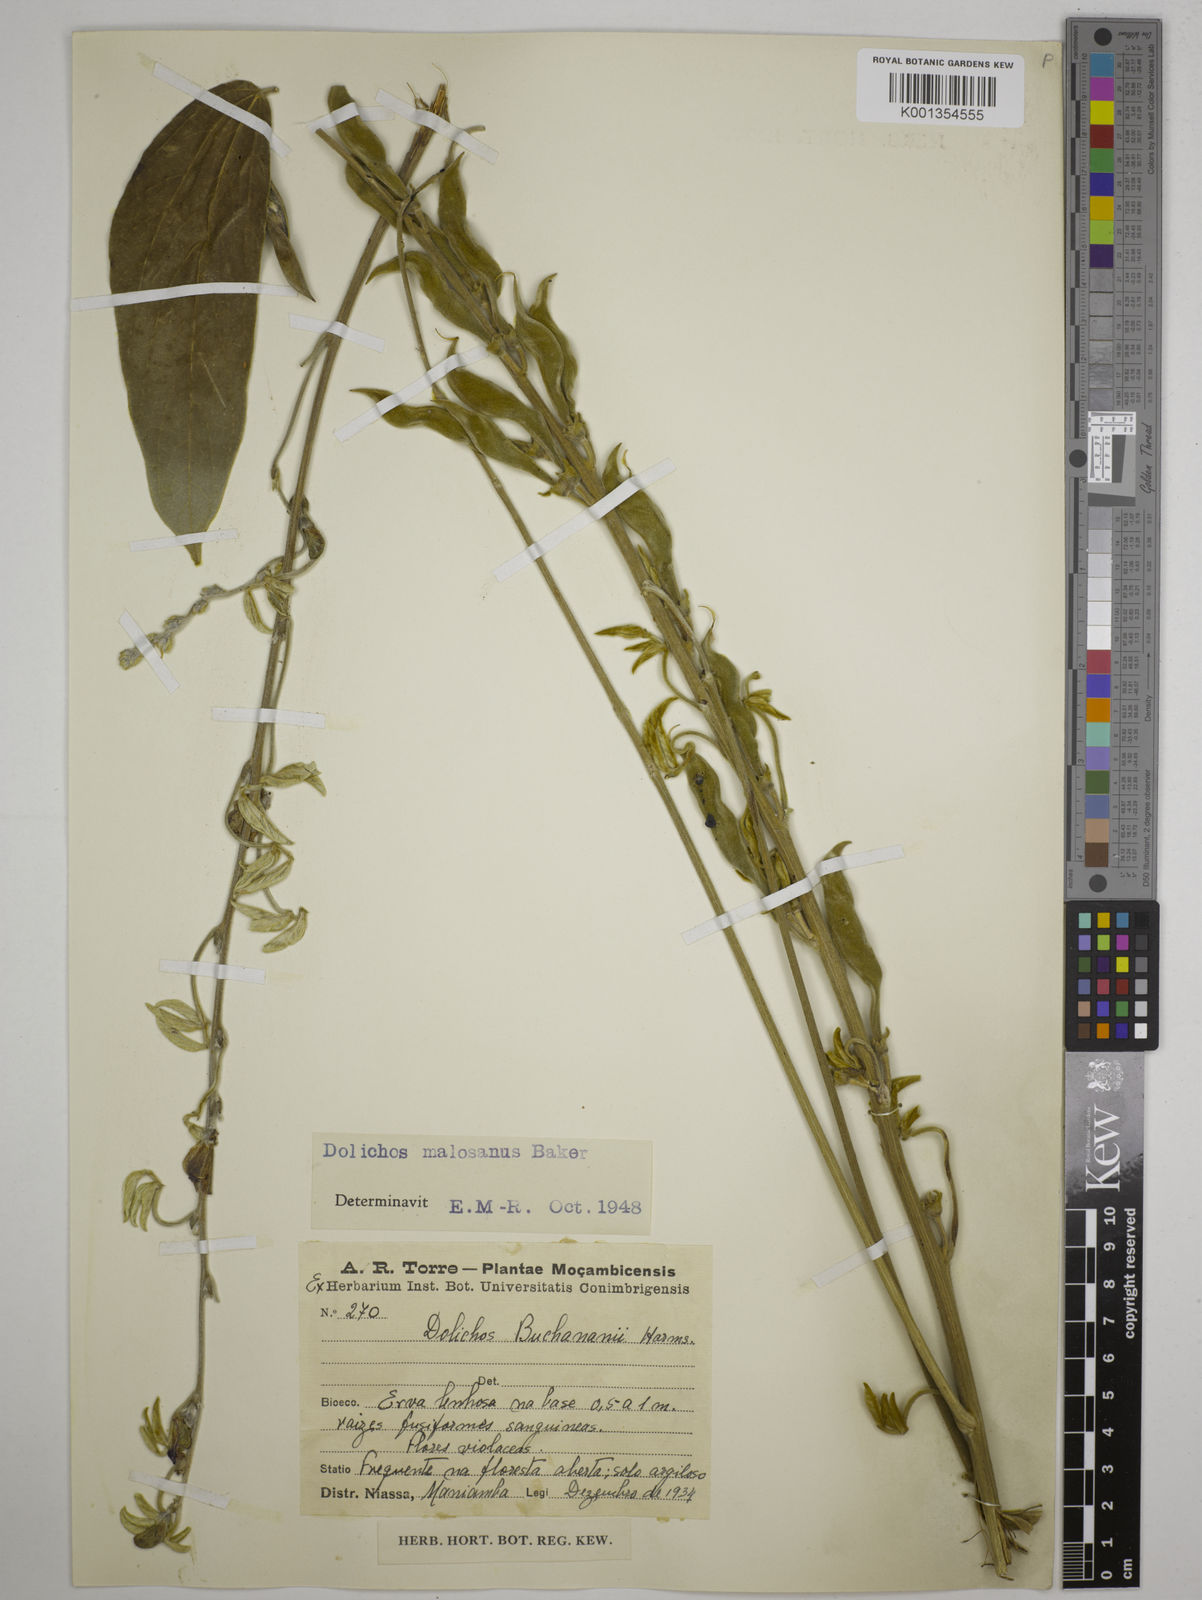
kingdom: Plantae
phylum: Tracheophyta
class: Magnoliopsida
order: Fabales
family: Fabaceae
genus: Dolichos
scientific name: Dolichos kilimandscharicus
